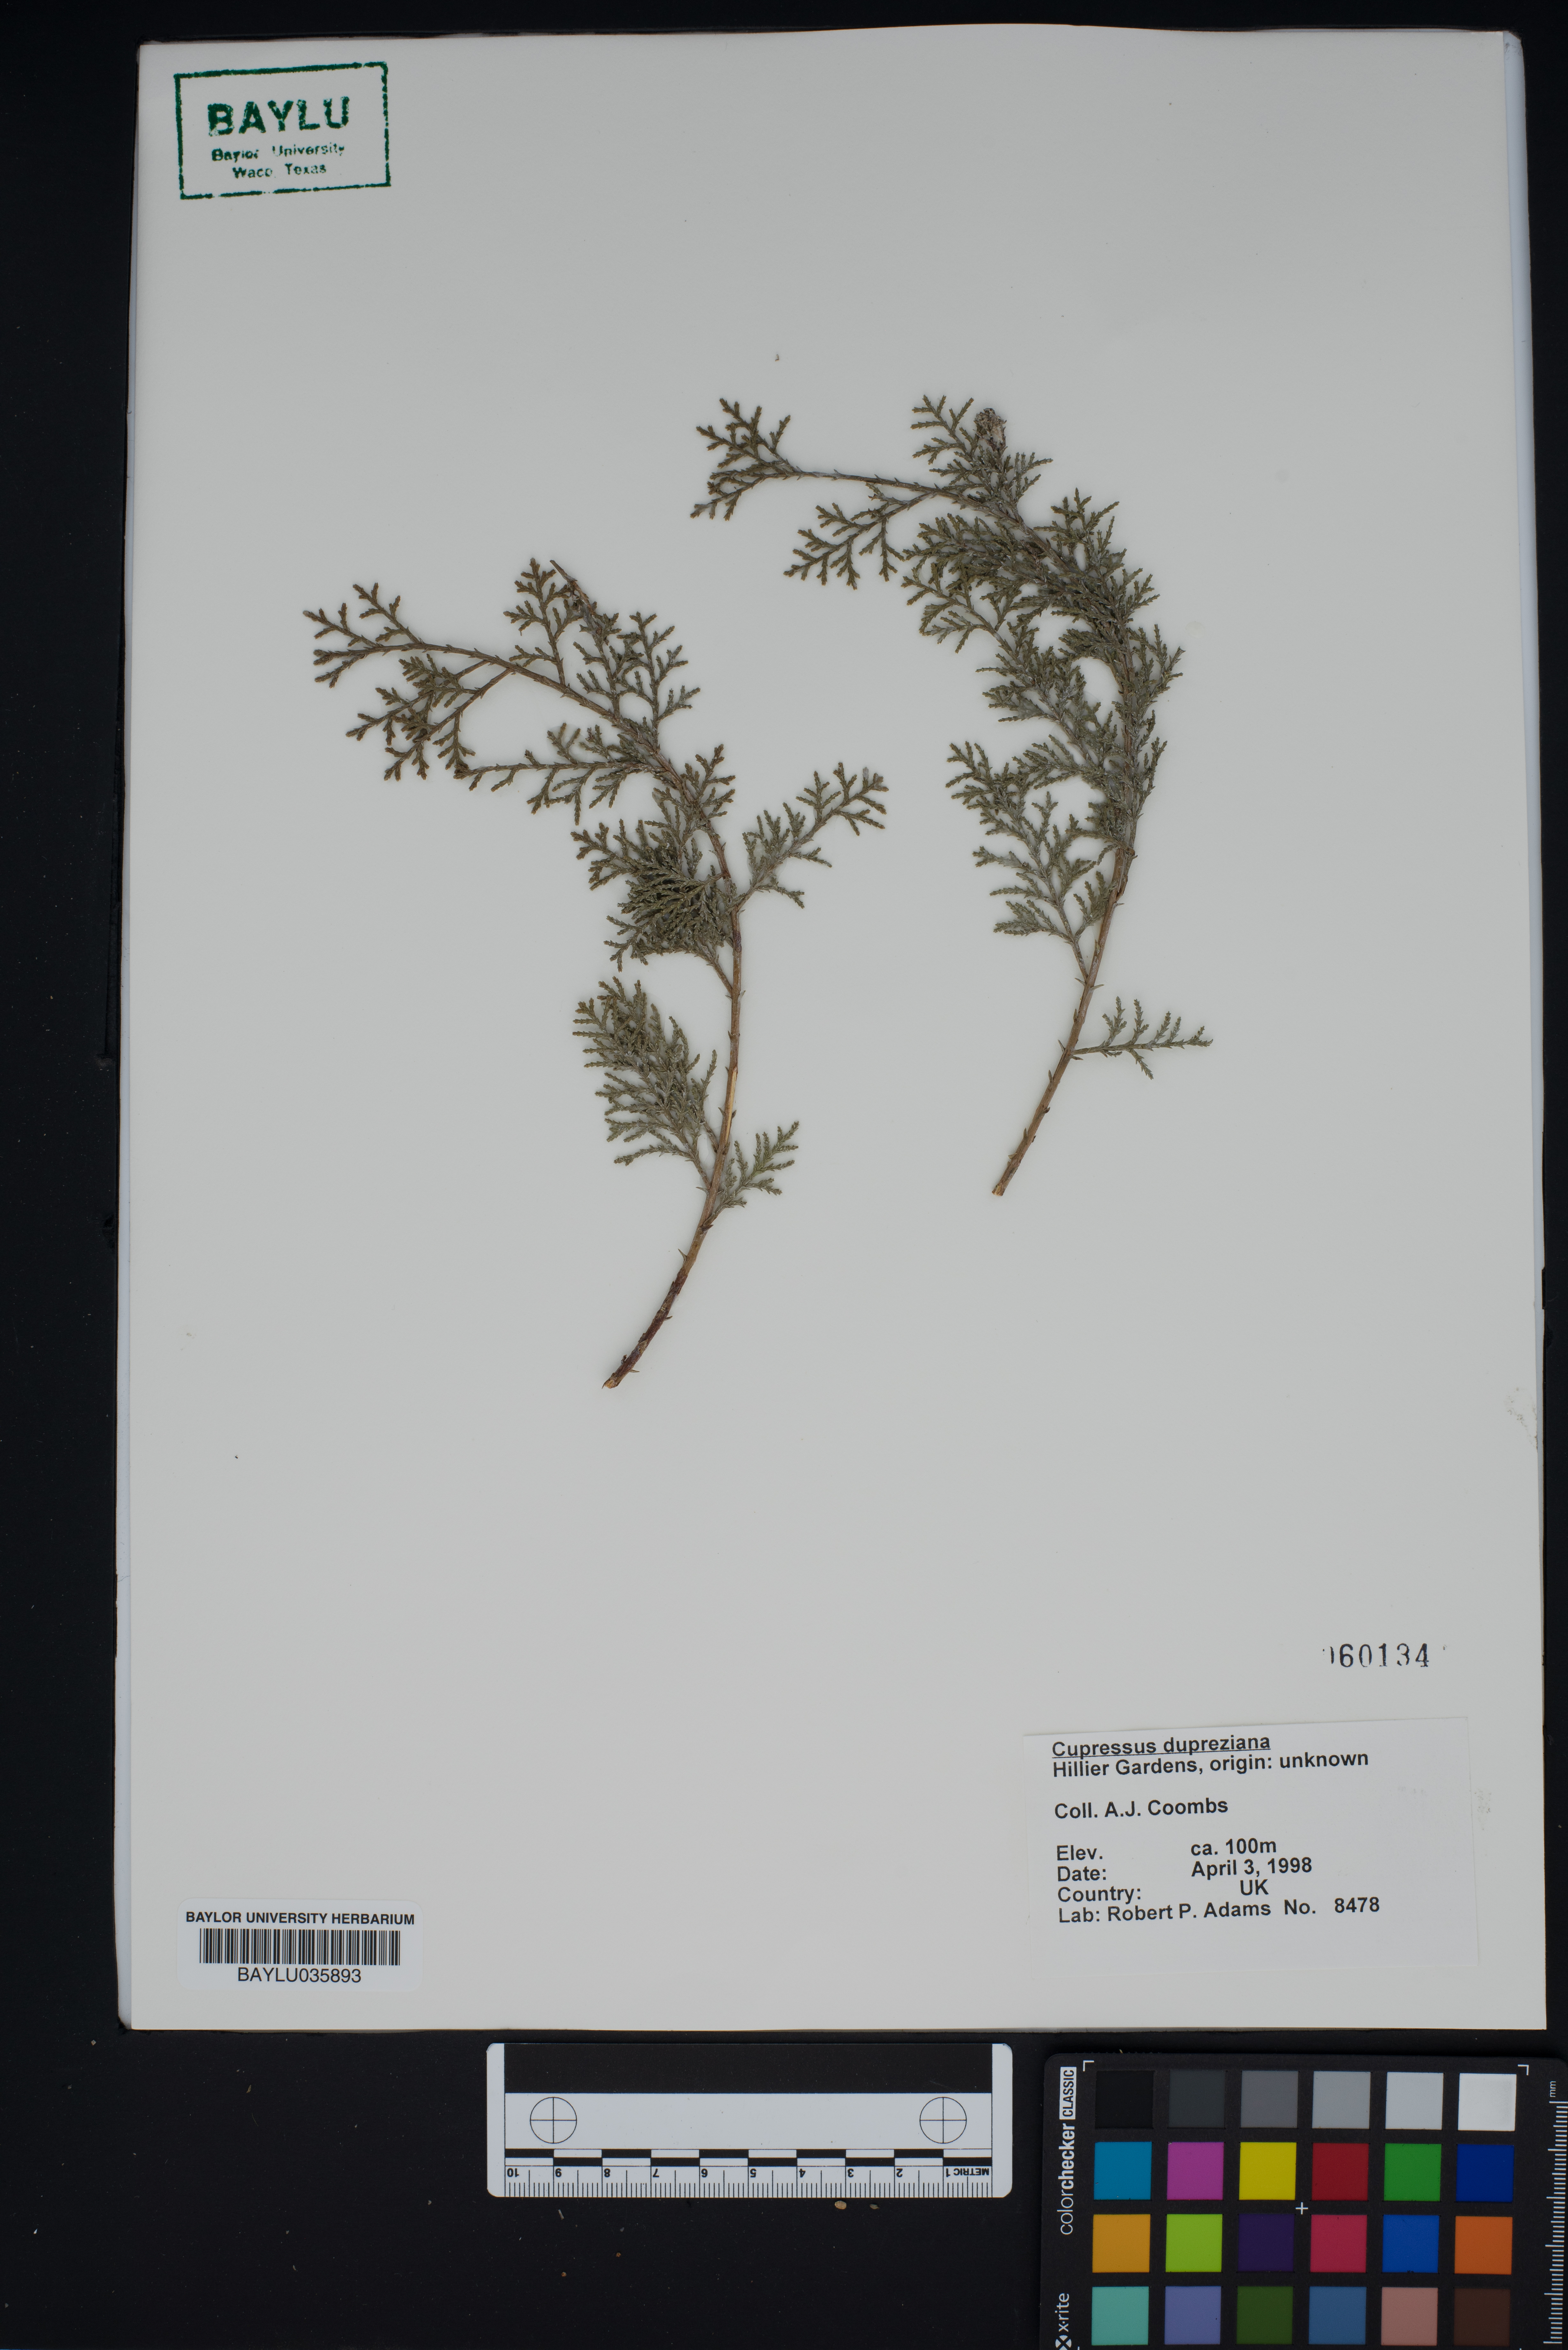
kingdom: Plantae
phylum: Tracheophyta
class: Pinopsida
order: Pinales
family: Cupressaceae
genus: Cupressus
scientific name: Cupressus dupreziana
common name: Moroccan cypress
